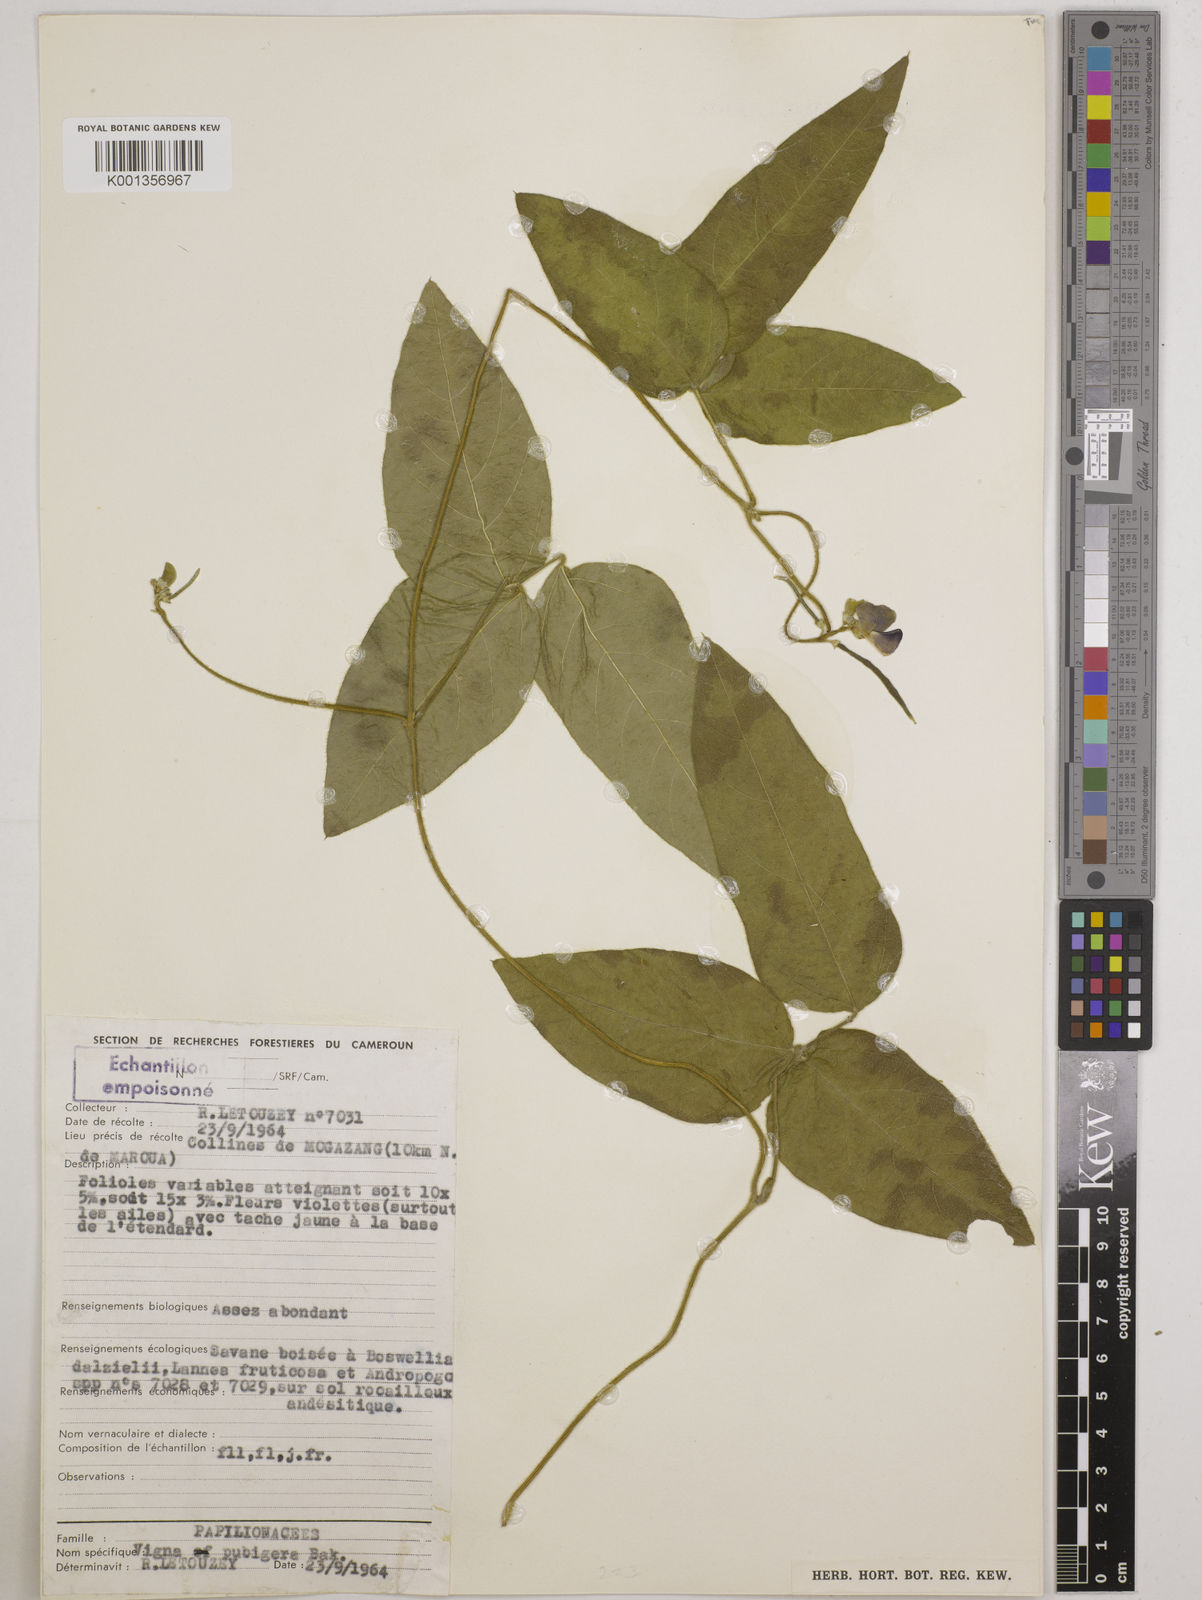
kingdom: Plantae
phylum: Tracheophyta
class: Magnoliopsida
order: Fabales
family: Fabaceae
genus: Vigna
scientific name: Vigna ambacensis
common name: Tsarkiyan zomo
